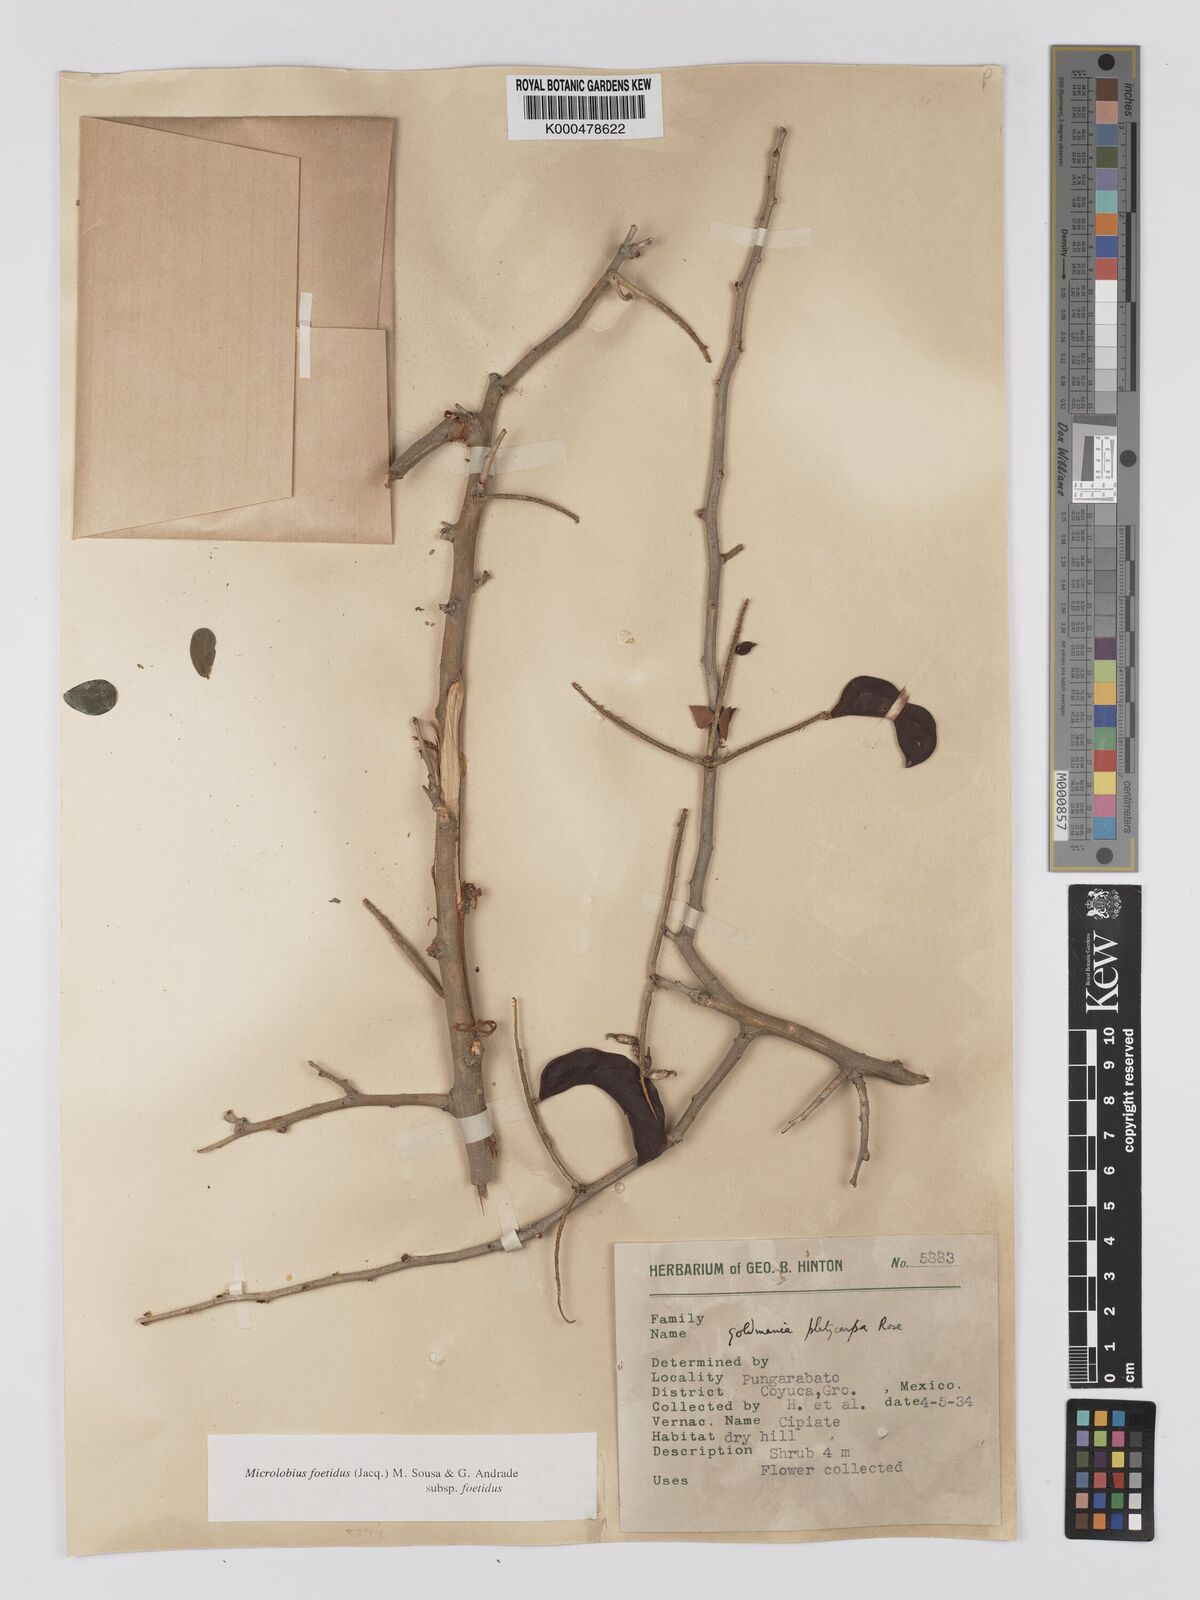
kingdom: Plantae
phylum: Tracheophyta
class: Magnoliopsida
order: Fabales
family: Fabaceae
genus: Microlobius
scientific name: Microlobius foetidus
